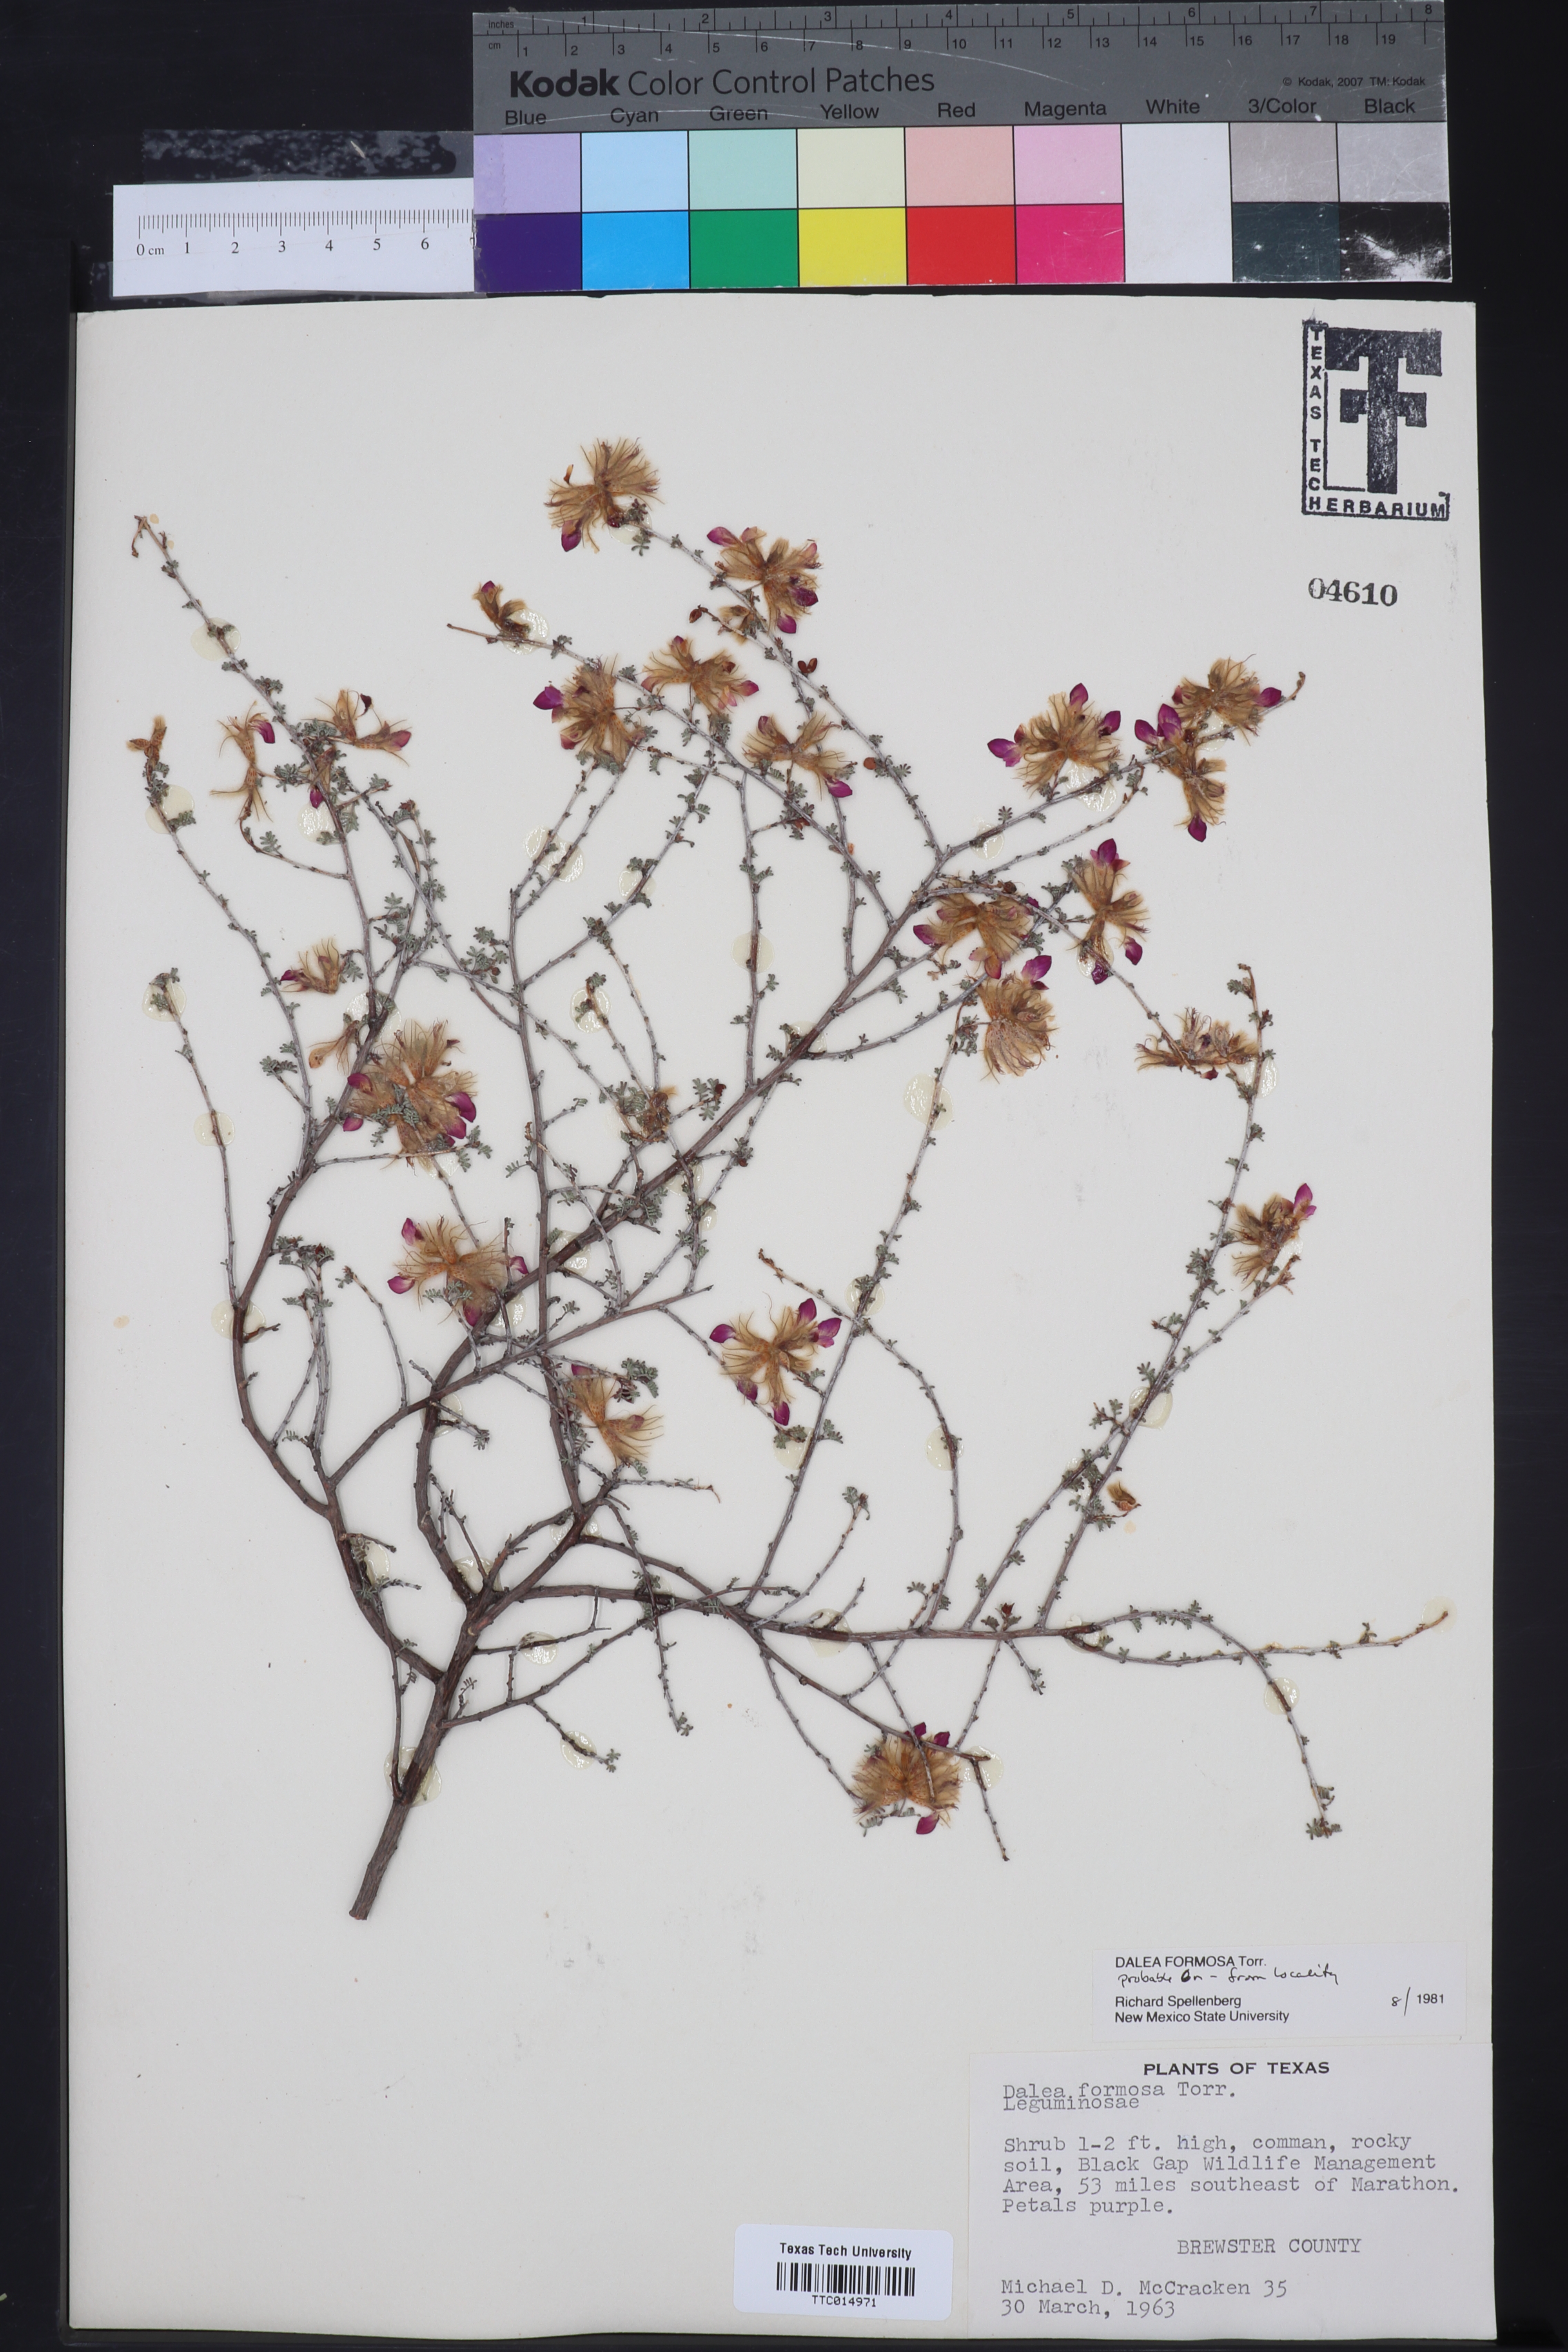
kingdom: Plantae
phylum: Tracheophyta
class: Magnoliopsida
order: Fabales
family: Fabaceae
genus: Dalea
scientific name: Dalea formosa
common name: Feather-plume dalea
